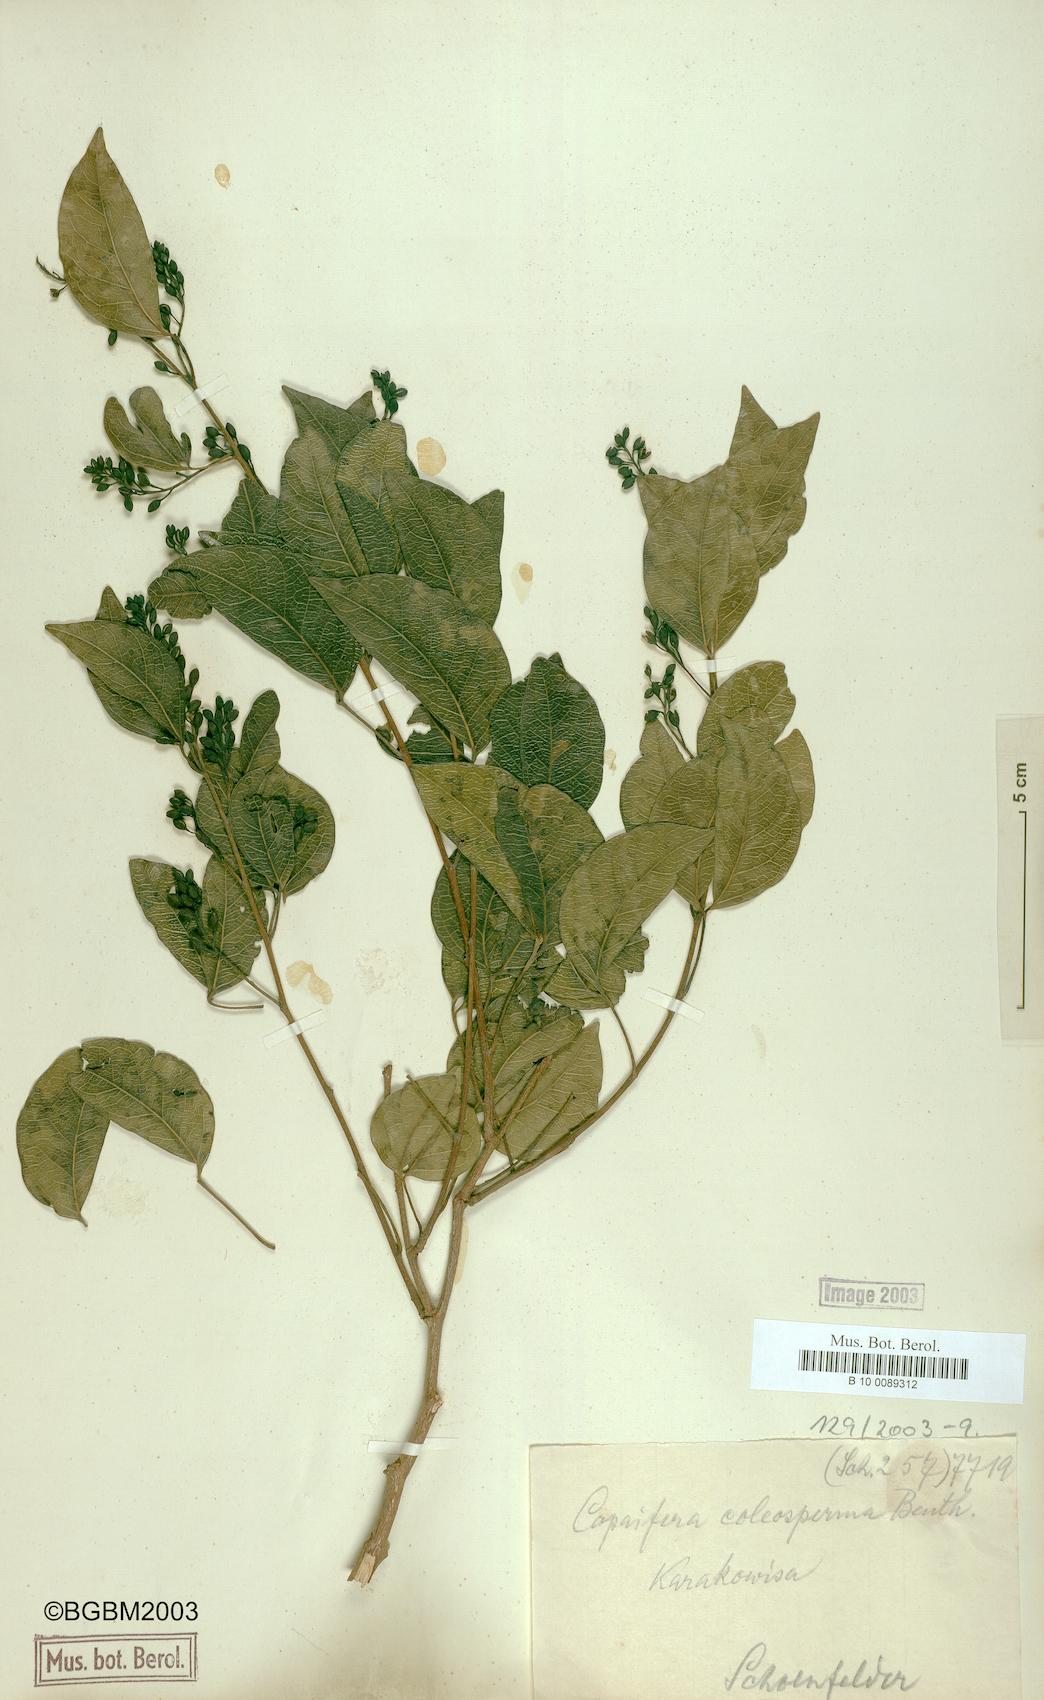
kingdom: Plantae
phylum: Tracheophyta
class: Magnoliopsida
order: Fabales
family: Fabaceae
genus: Guibourtia
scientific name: Guibourtia coleosperma
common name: African rosewoood
